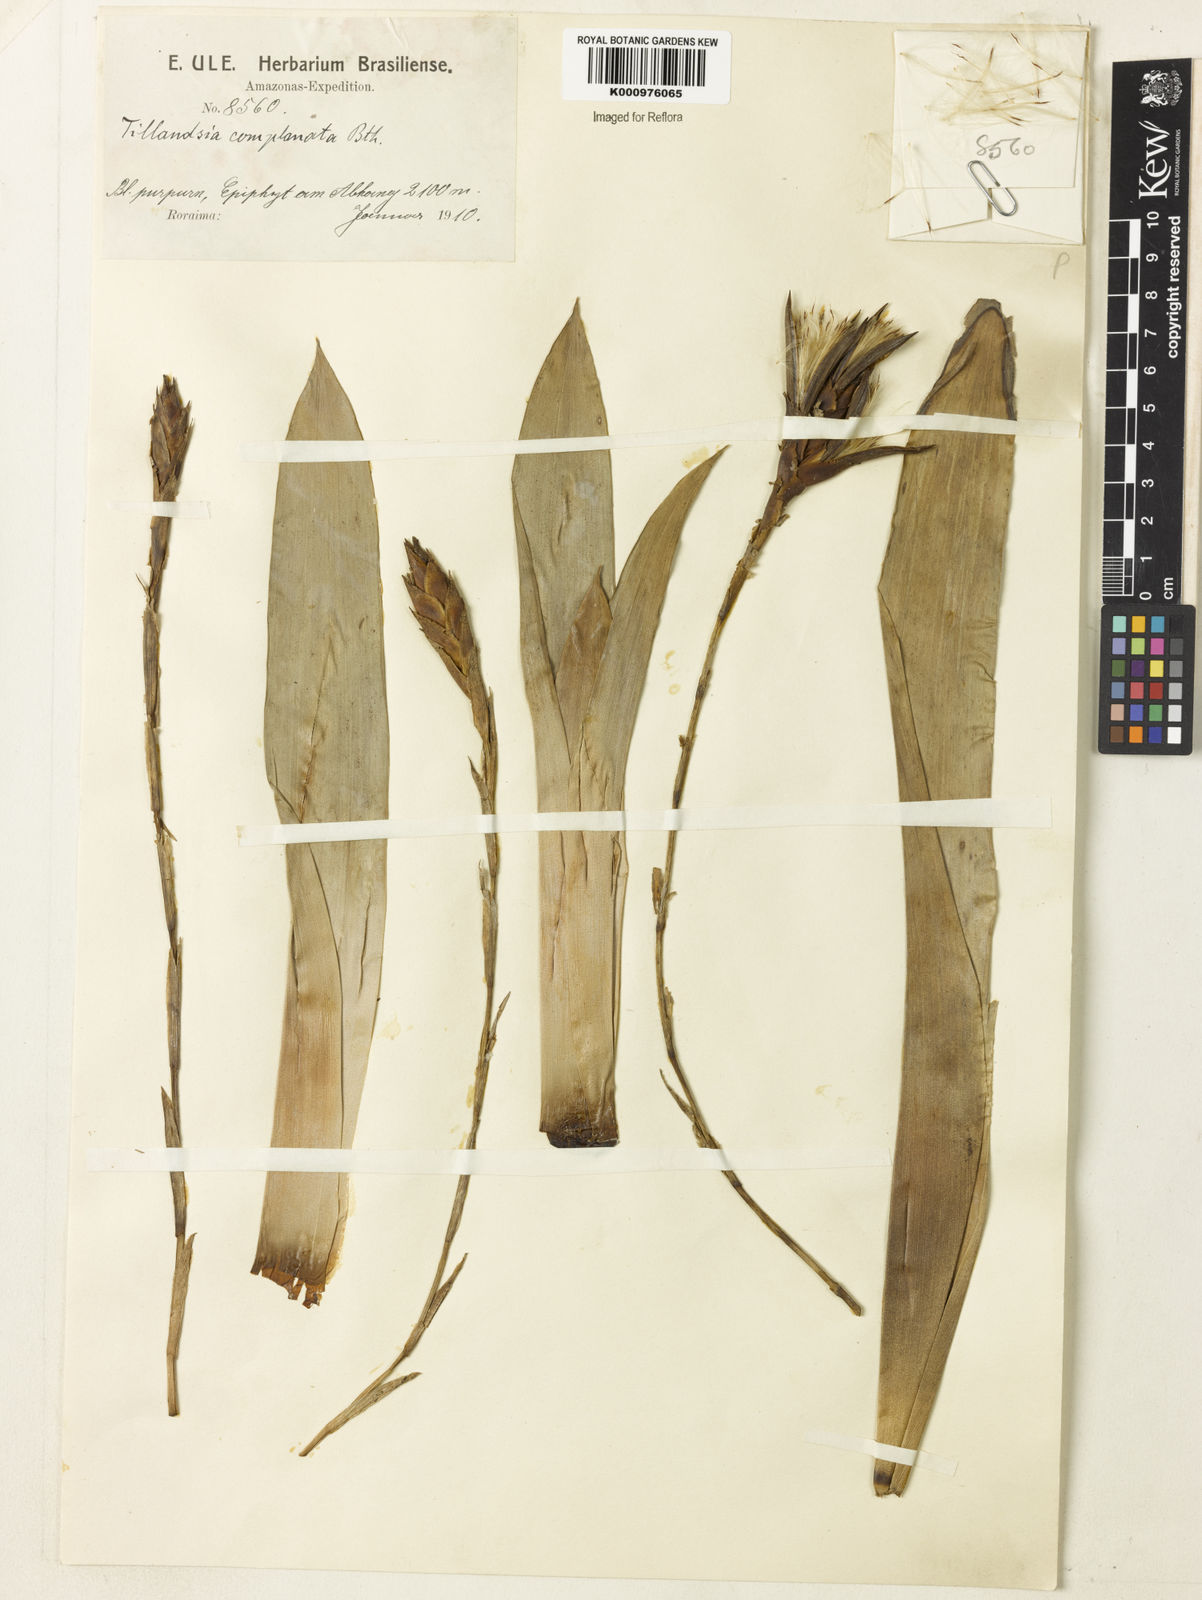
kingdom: Plantae
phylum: Tracheophyta
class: Liliopsida
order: Poales
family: Bromeliaceae
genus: Tillandsia
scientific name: Tillandsia complanata
